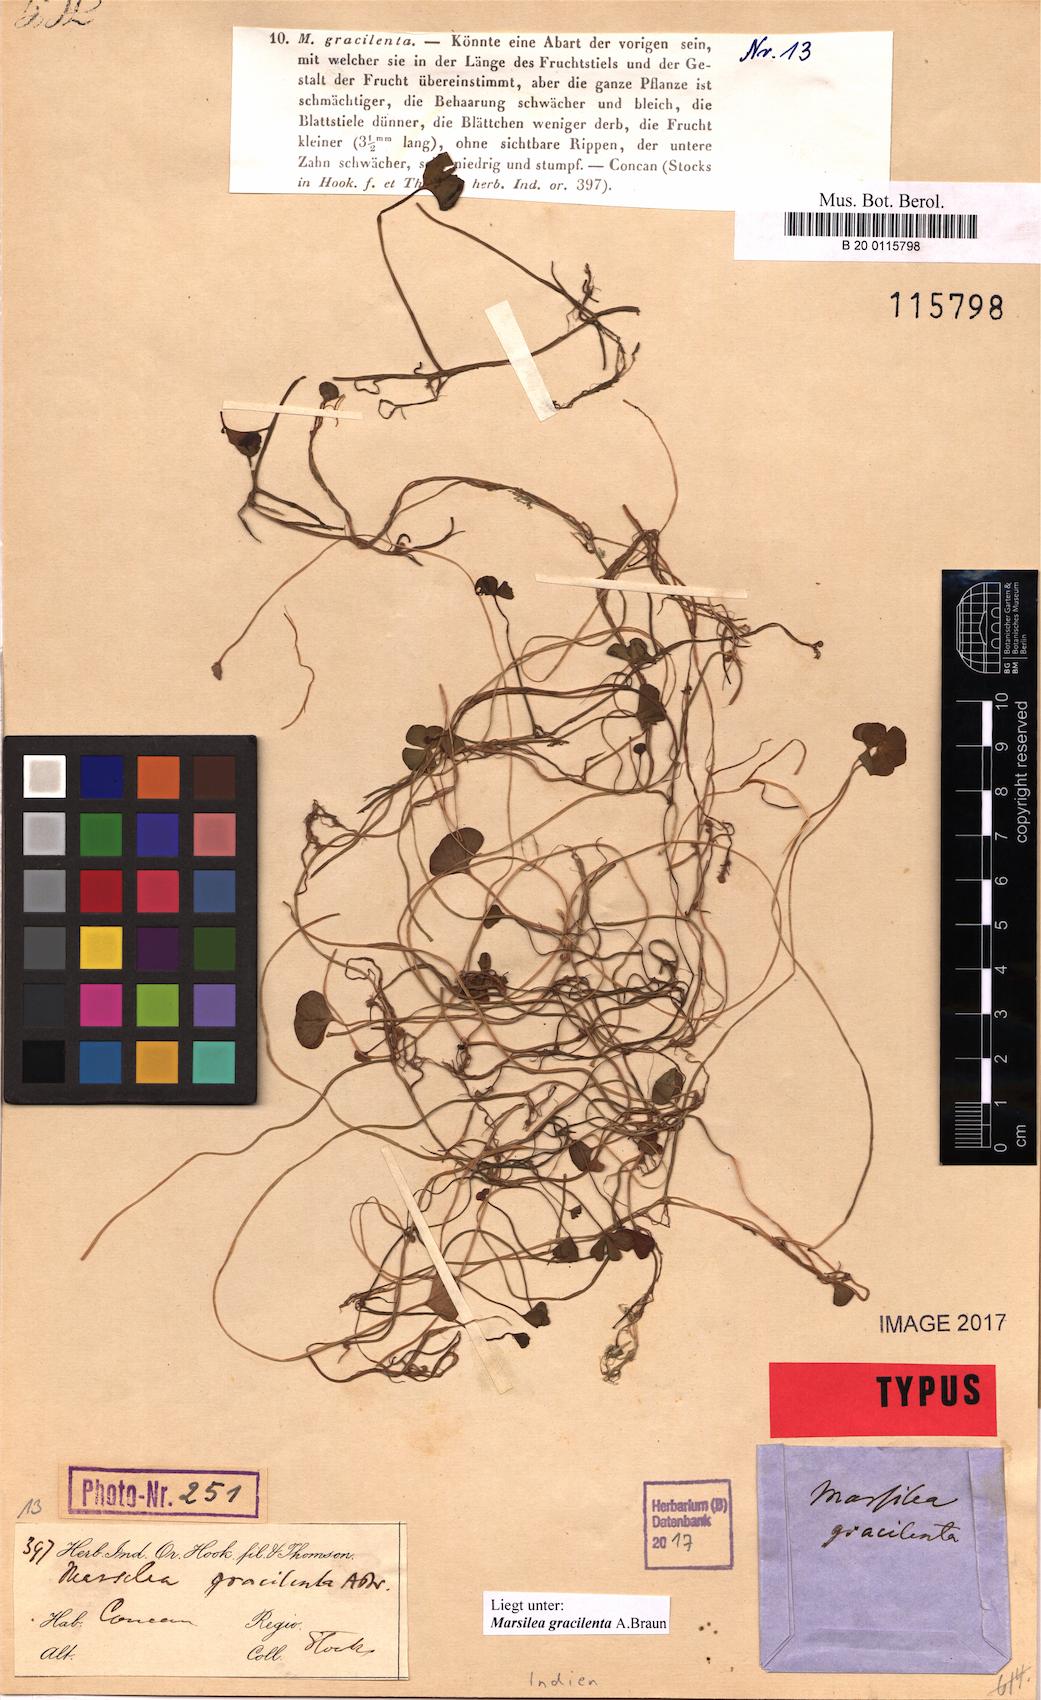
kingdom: Plantae
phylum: Tracheophyta
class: Polypodiopsida
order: Salviniales
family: Marsileaceae
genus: Marsilea
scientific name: Marsilea minuta
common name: Dwarf waterclover
